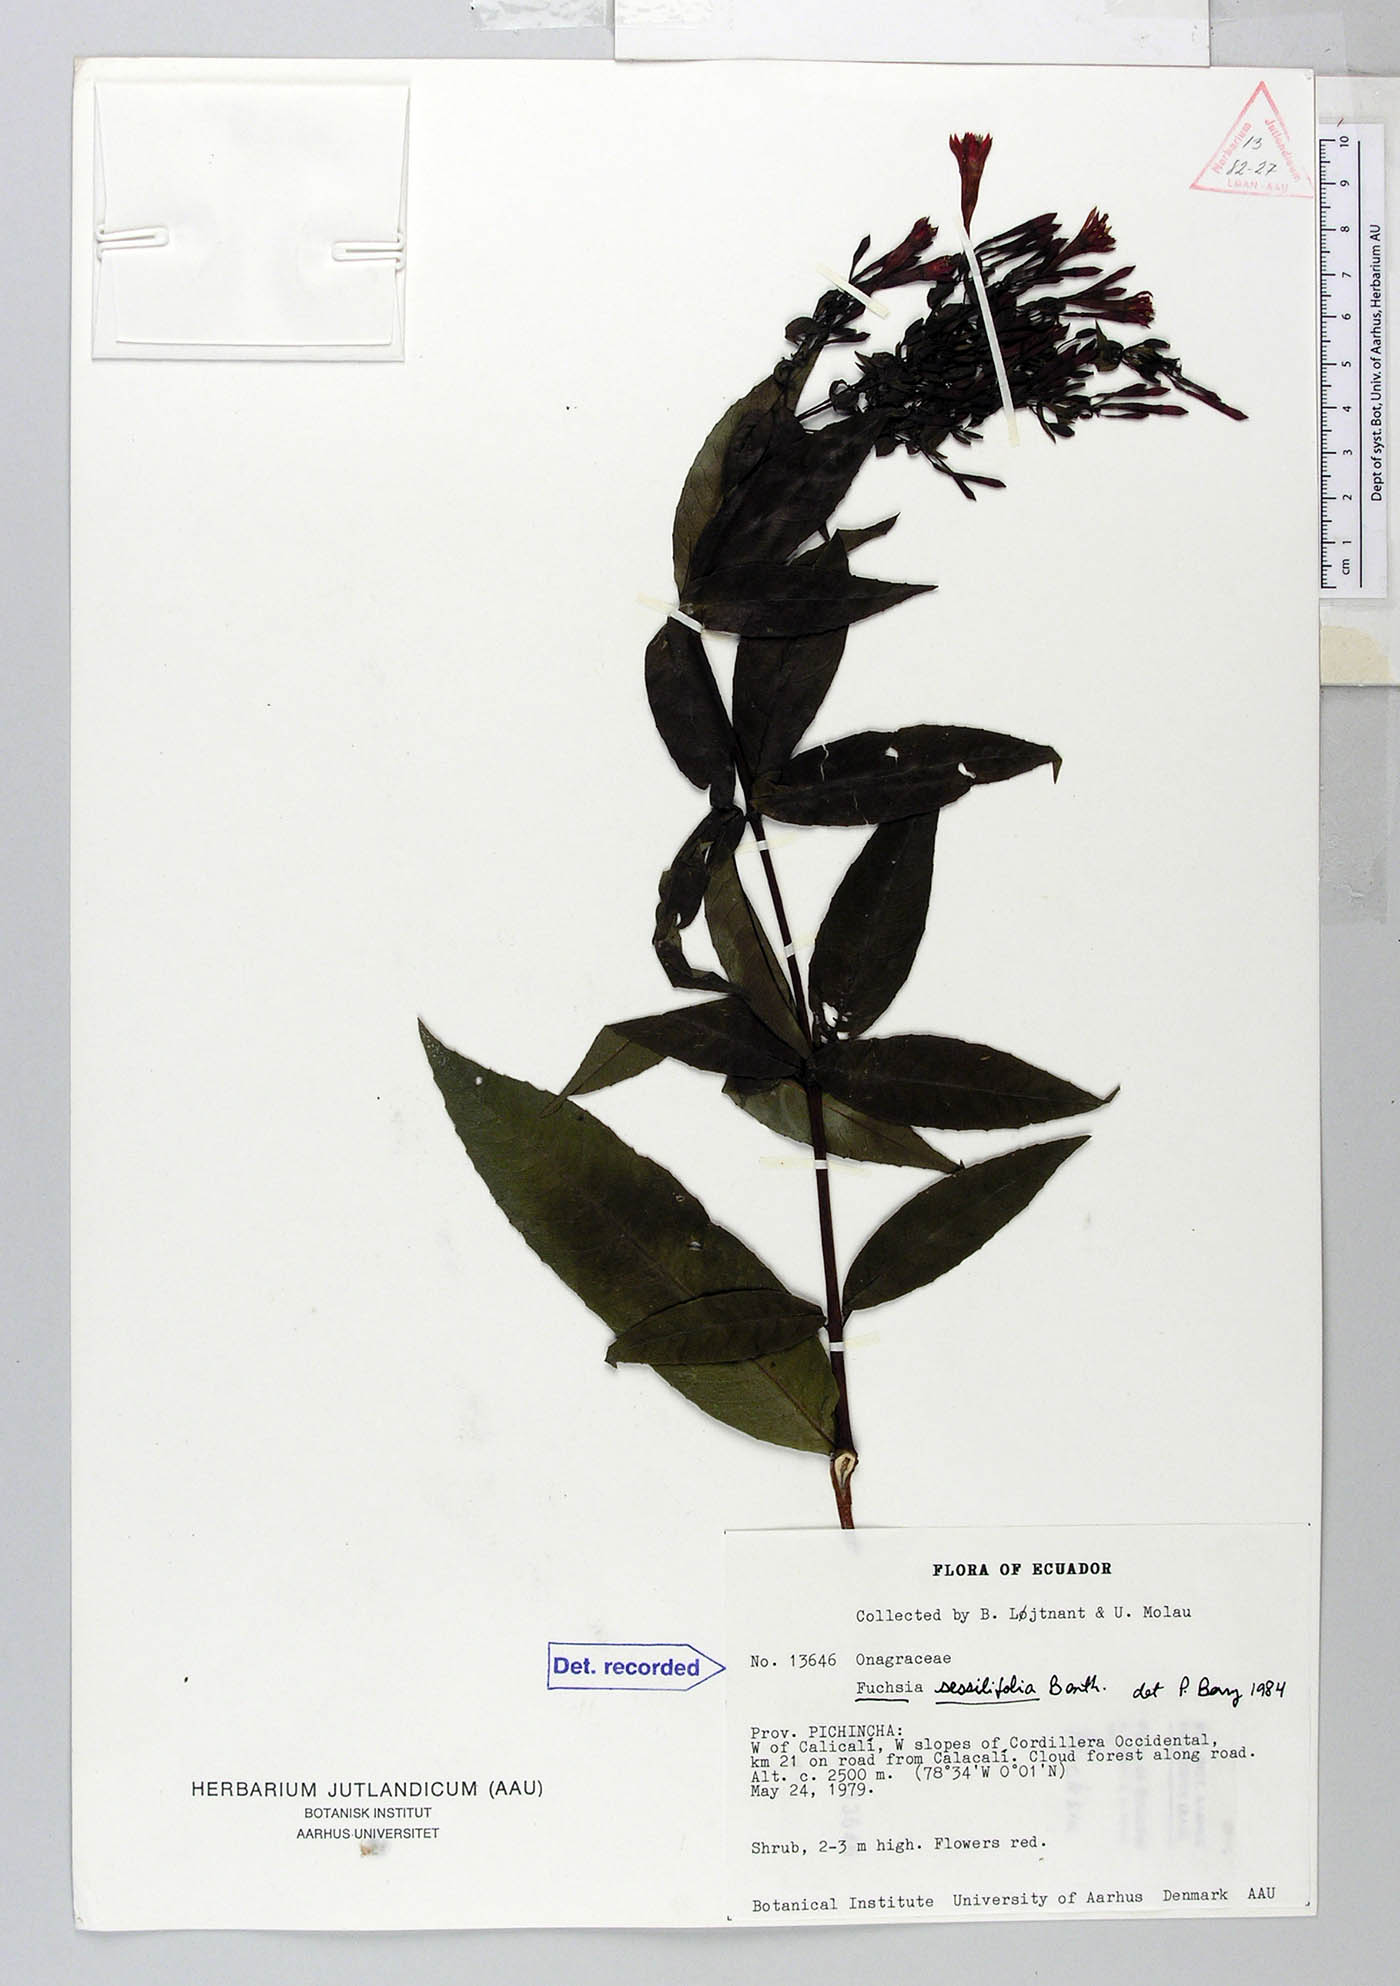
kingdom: Plantae
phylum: Tracheophyta
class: Magnoliopsida
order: Myrtales
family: Onagraceae
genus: Fuchsia
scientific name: Fuchsia sessilifolia
